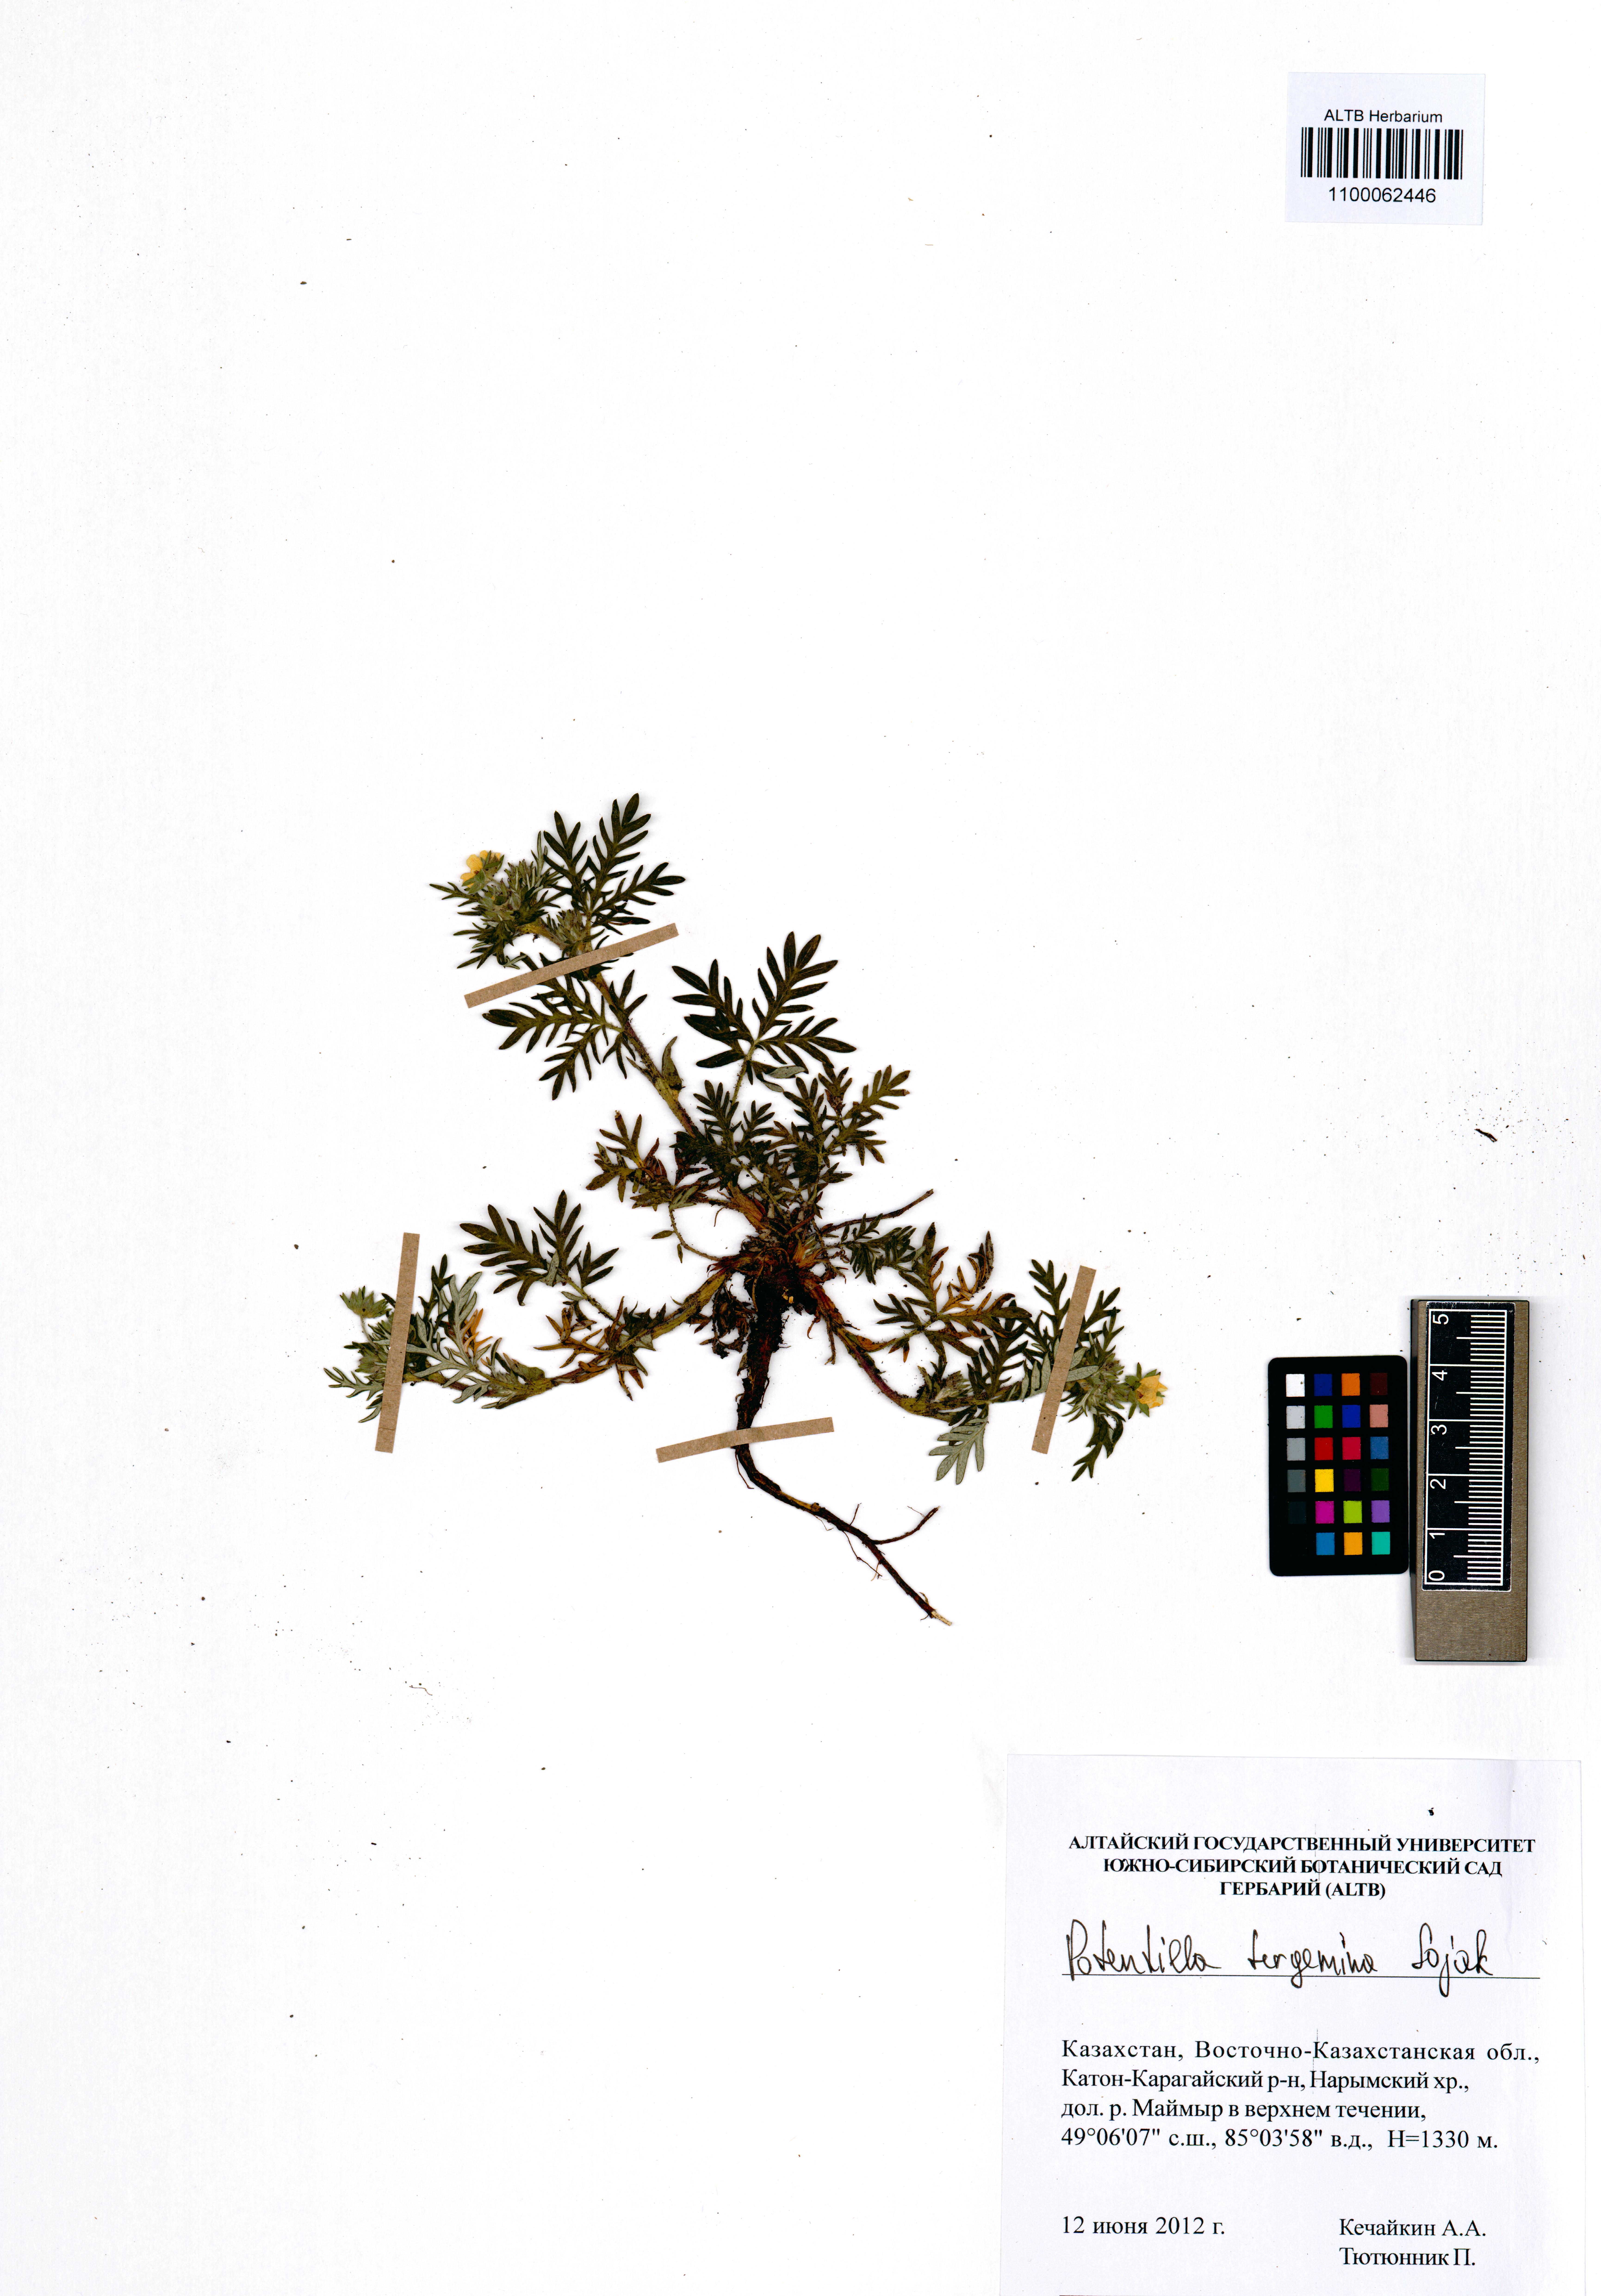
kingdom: Plantae
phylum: Tracheophyta
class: Magnoliopsida
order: Rosales
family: Rosaceae
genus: Potentilla
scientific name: Potentilla tergemina
